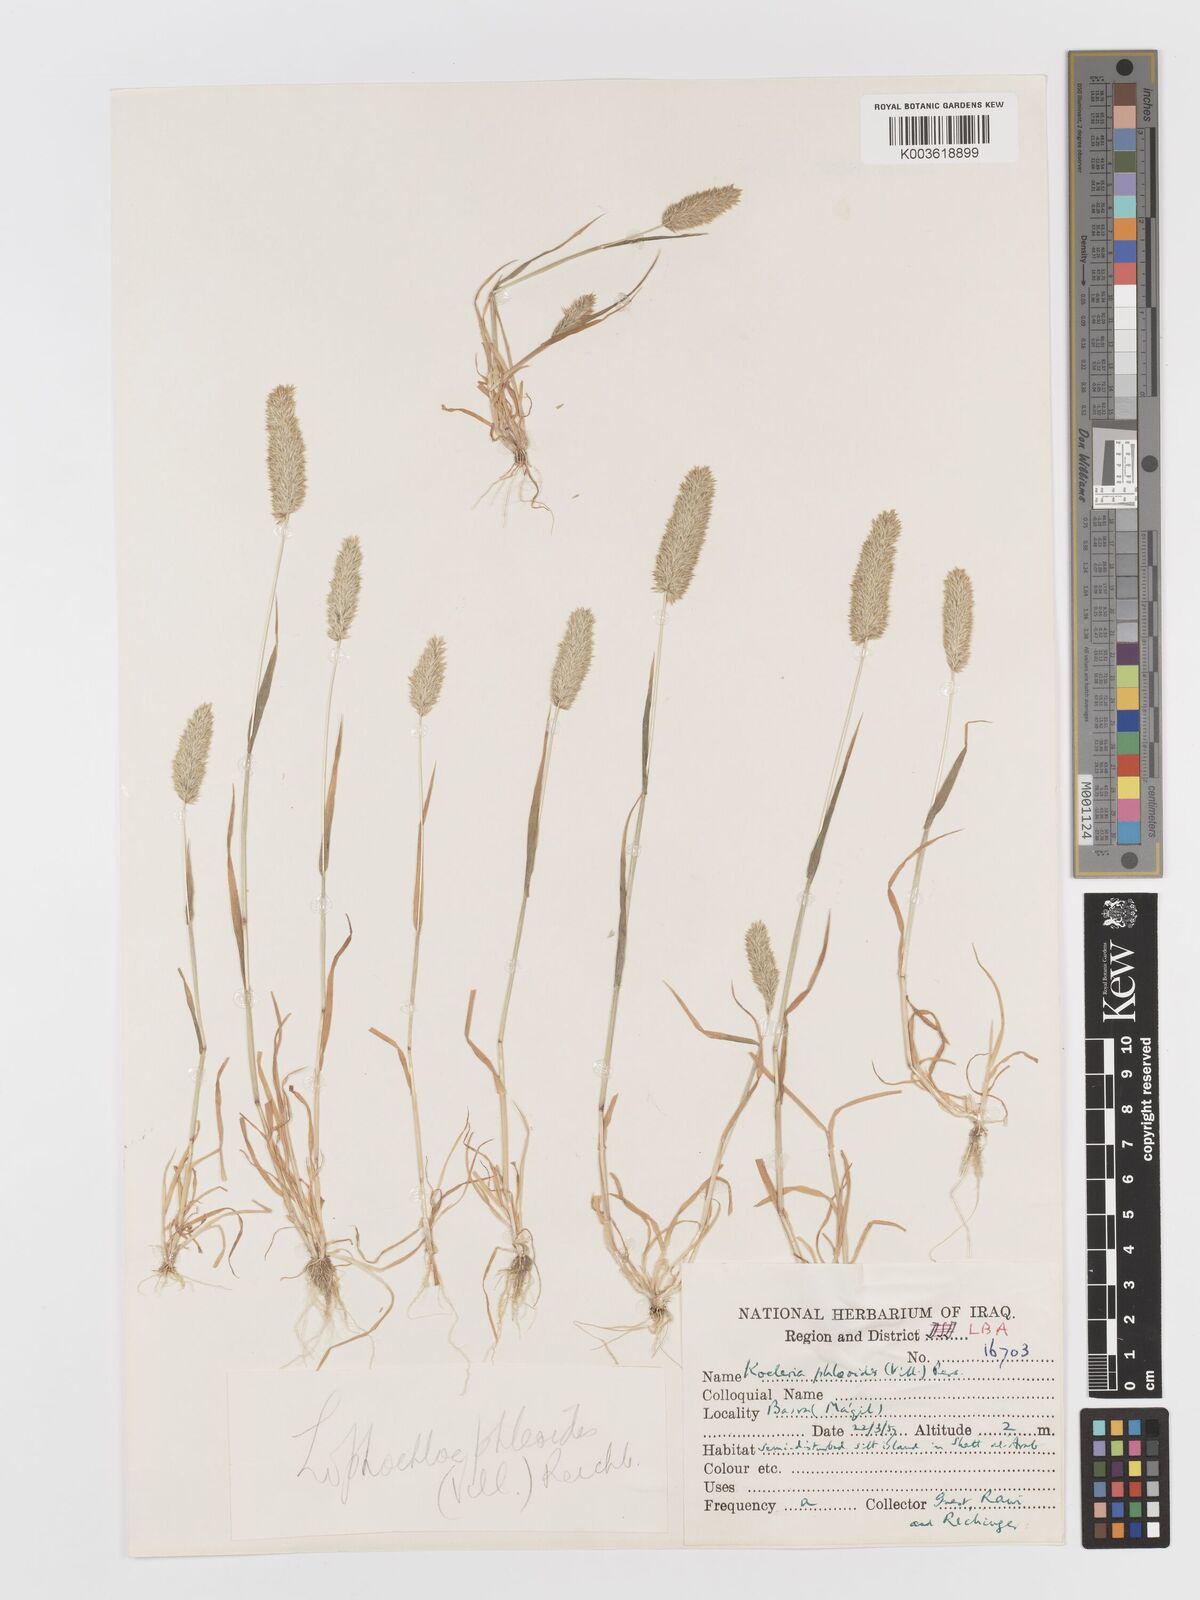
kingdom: Plantae
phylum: Tracheophyta
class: Liliopsida
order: Poales
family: Poaceae
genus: Rostraria
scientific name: Rostraria cristata
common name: Mediterranean hair-grass
